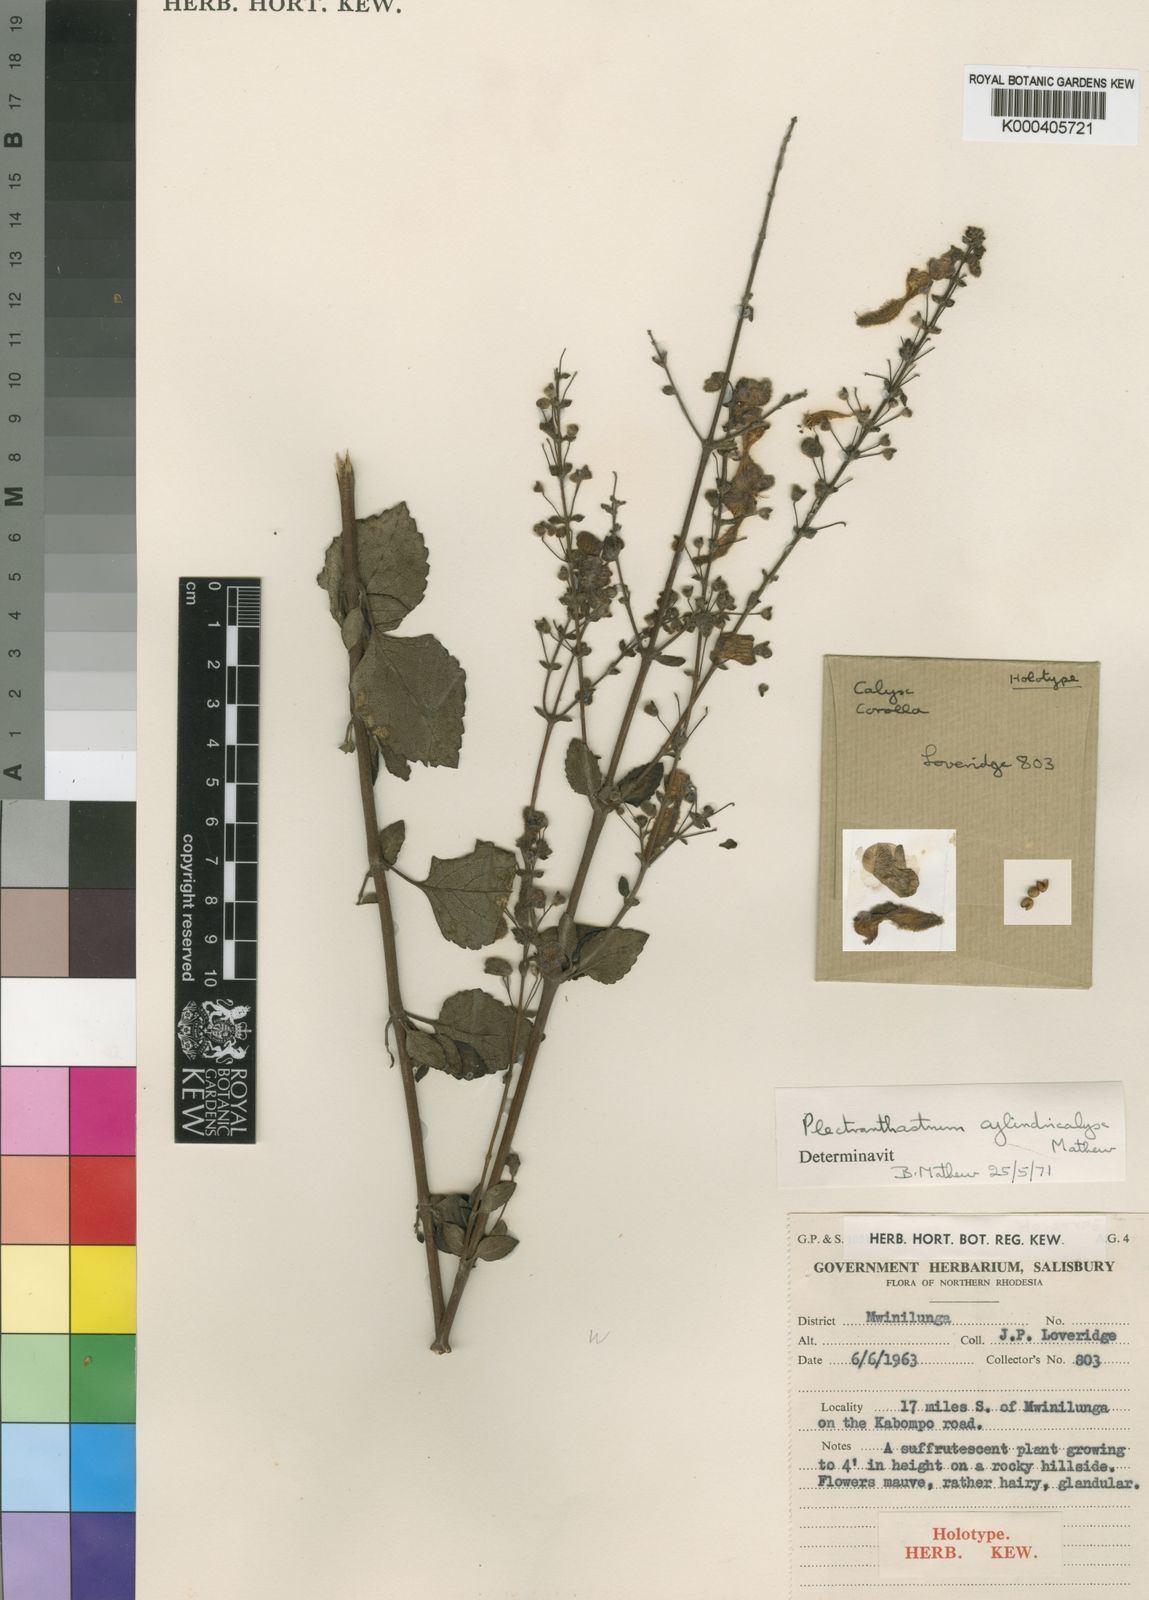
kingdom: Plantae
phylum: Tracheophyta
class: Magnoliopsida
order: Lamiales
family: Lamiaceae
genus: Alvesia
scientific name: Alvesia cylindricalyx
